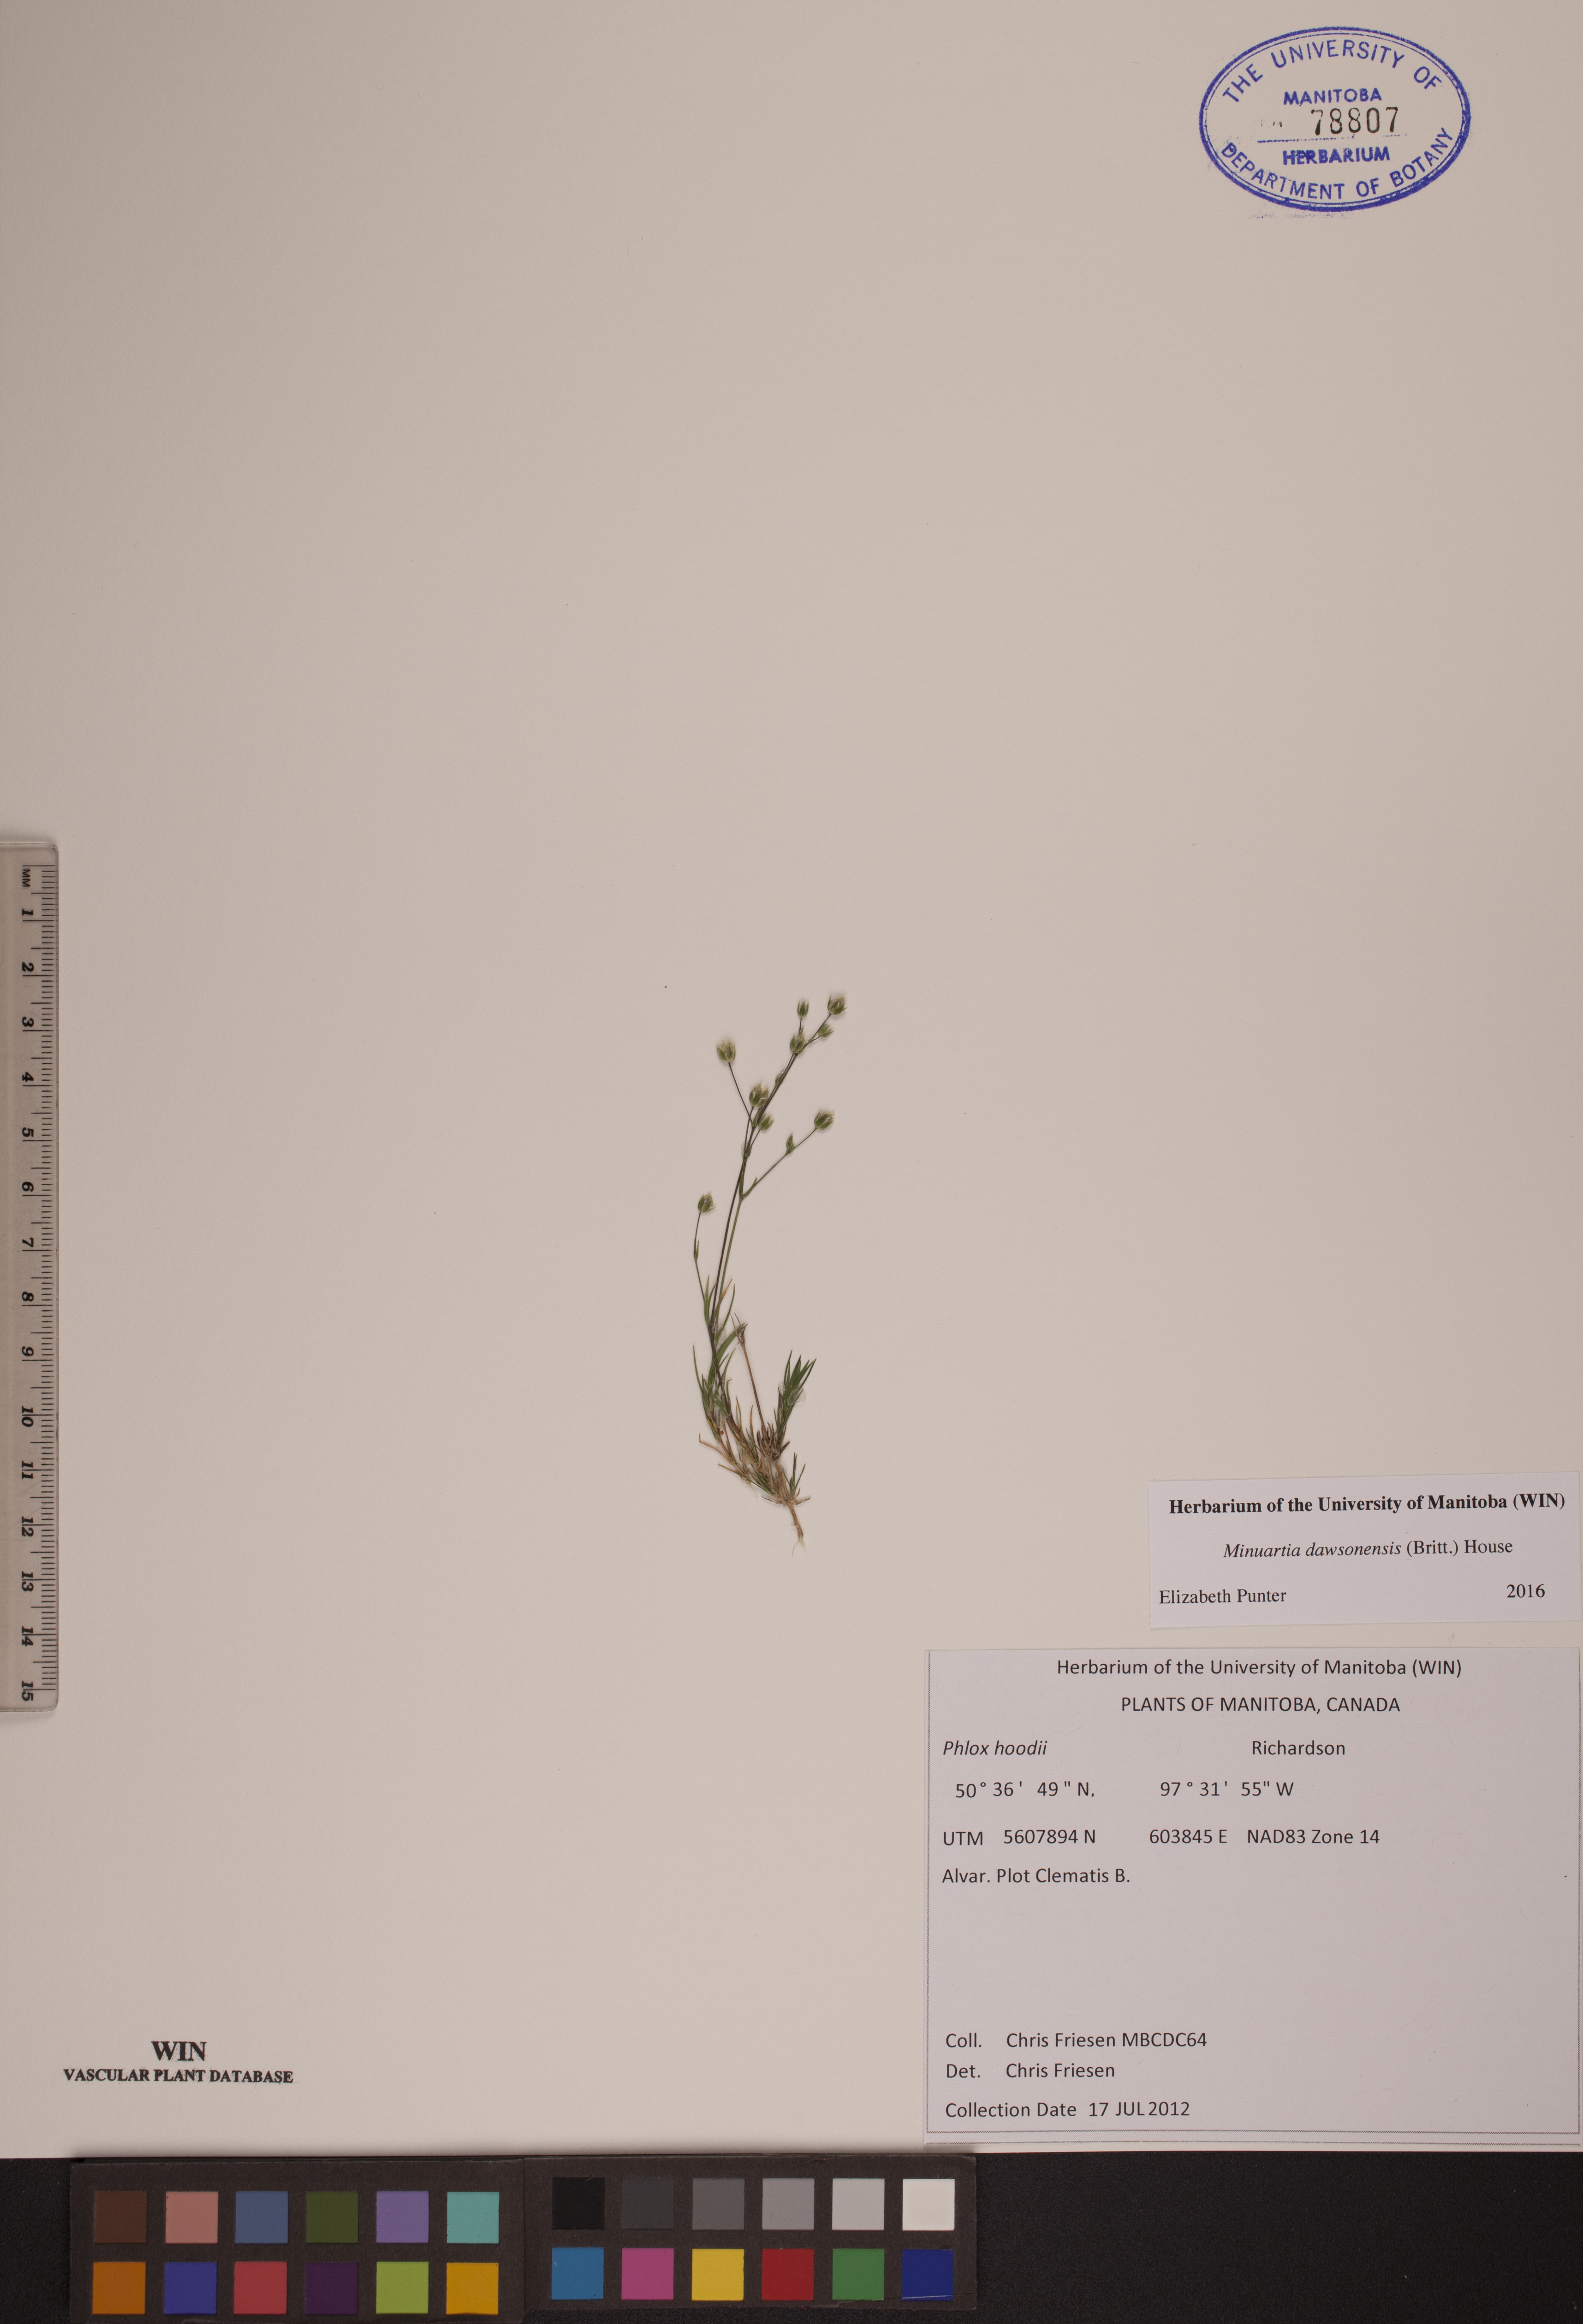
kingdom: Plantae
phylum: Tracheophyta
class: Magnoliopsida
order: Caryophyllales
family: Caryophyllaceae
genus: Sabulina
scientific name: Sabulina dawsonensis
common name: Dawson's cockle
